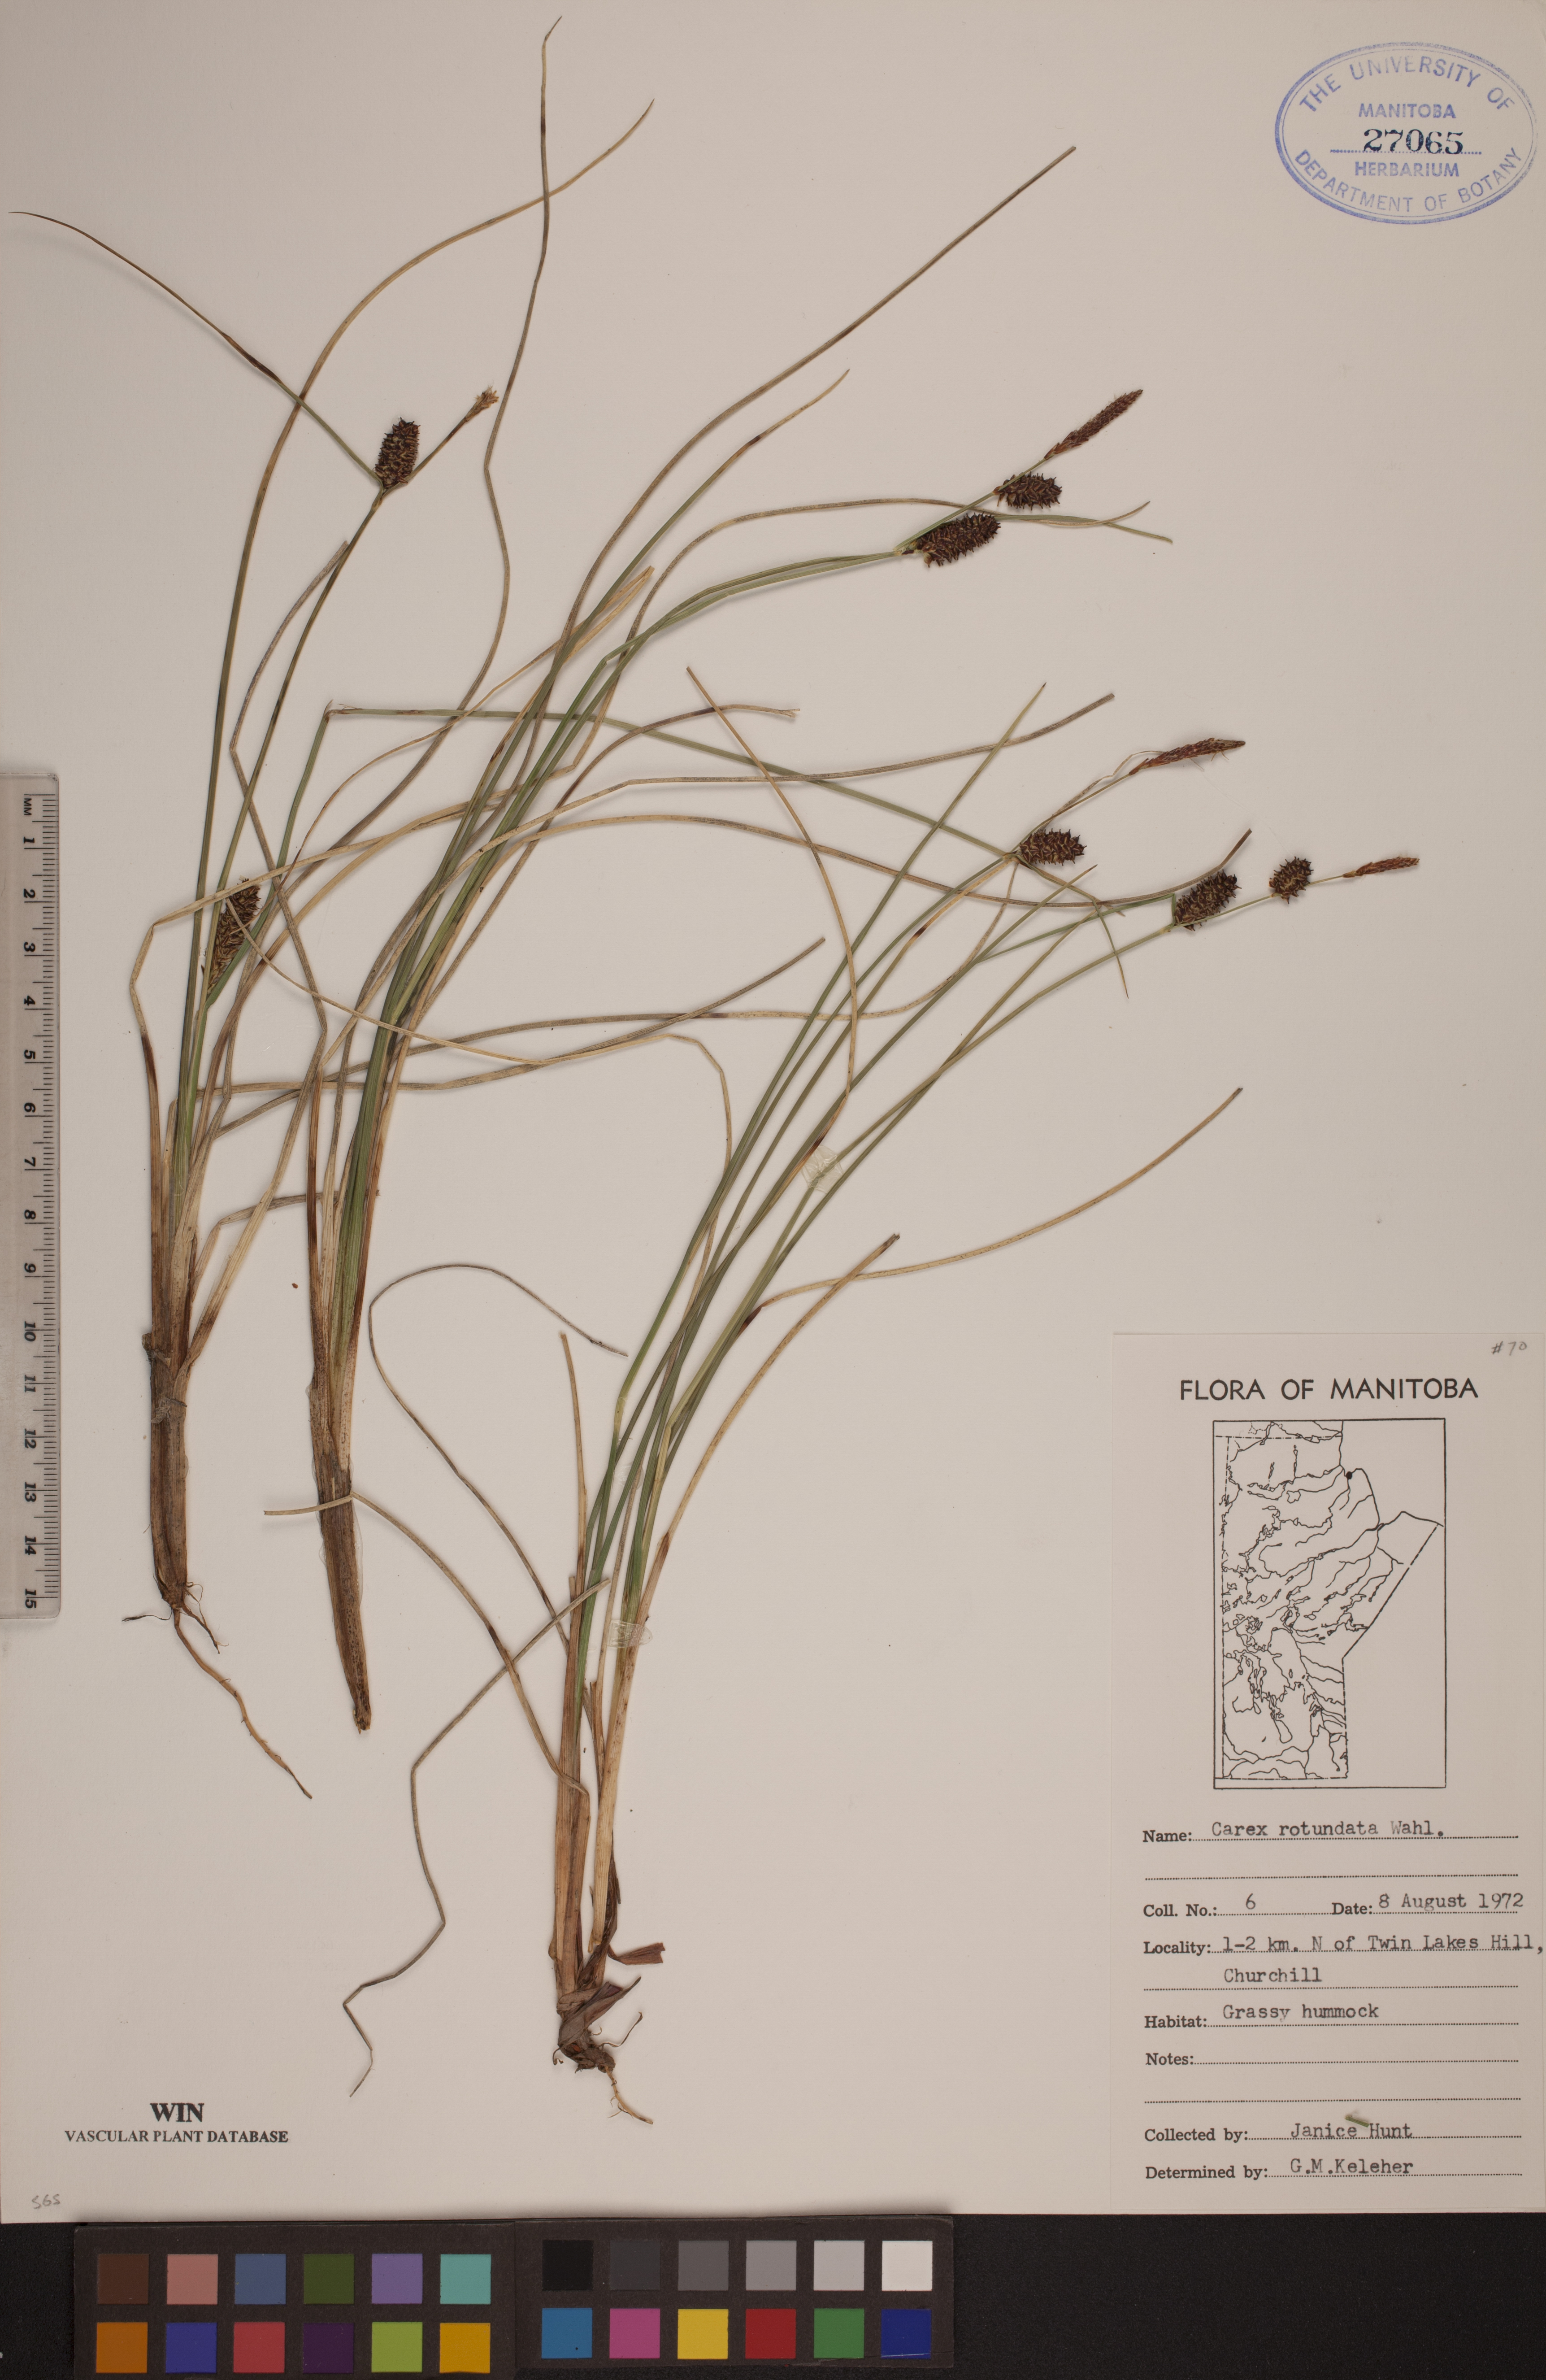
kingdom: Plantae
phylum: Tracheophyta
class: Liliopsida
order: Poales
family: Cyperaceae
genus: Carex
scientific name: Carex rotundata
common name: Round-fruited sedge
